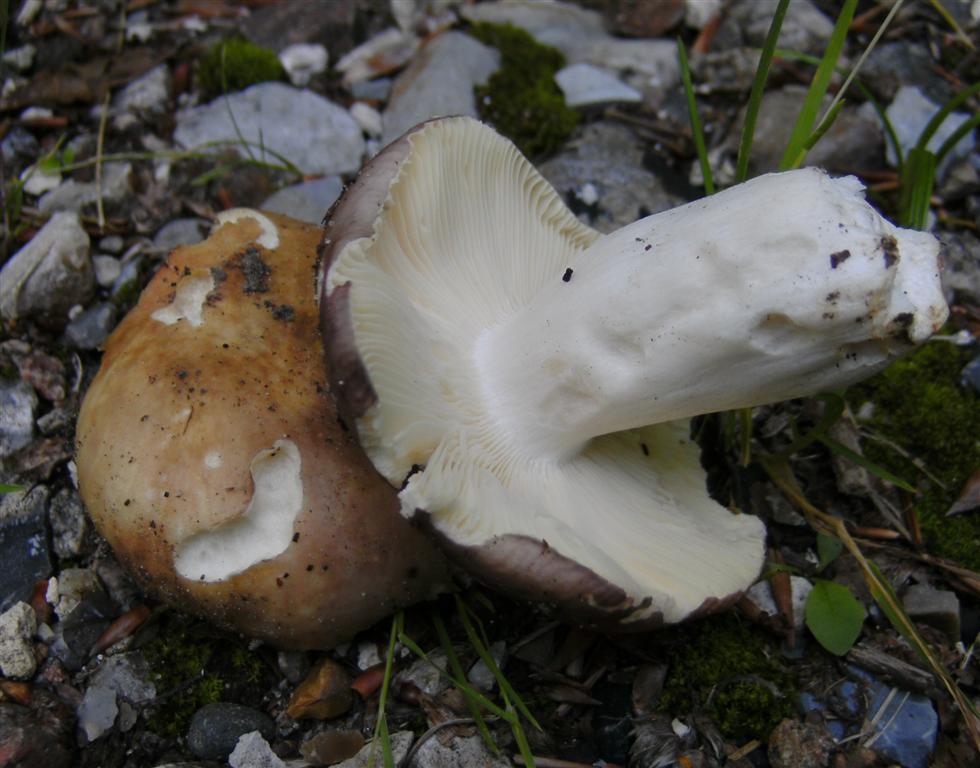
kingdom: Fungi
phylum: Basidiomycota
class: Agaricomycetes
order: Russulales
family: Russulaceae
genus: Russula
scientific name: Russula
